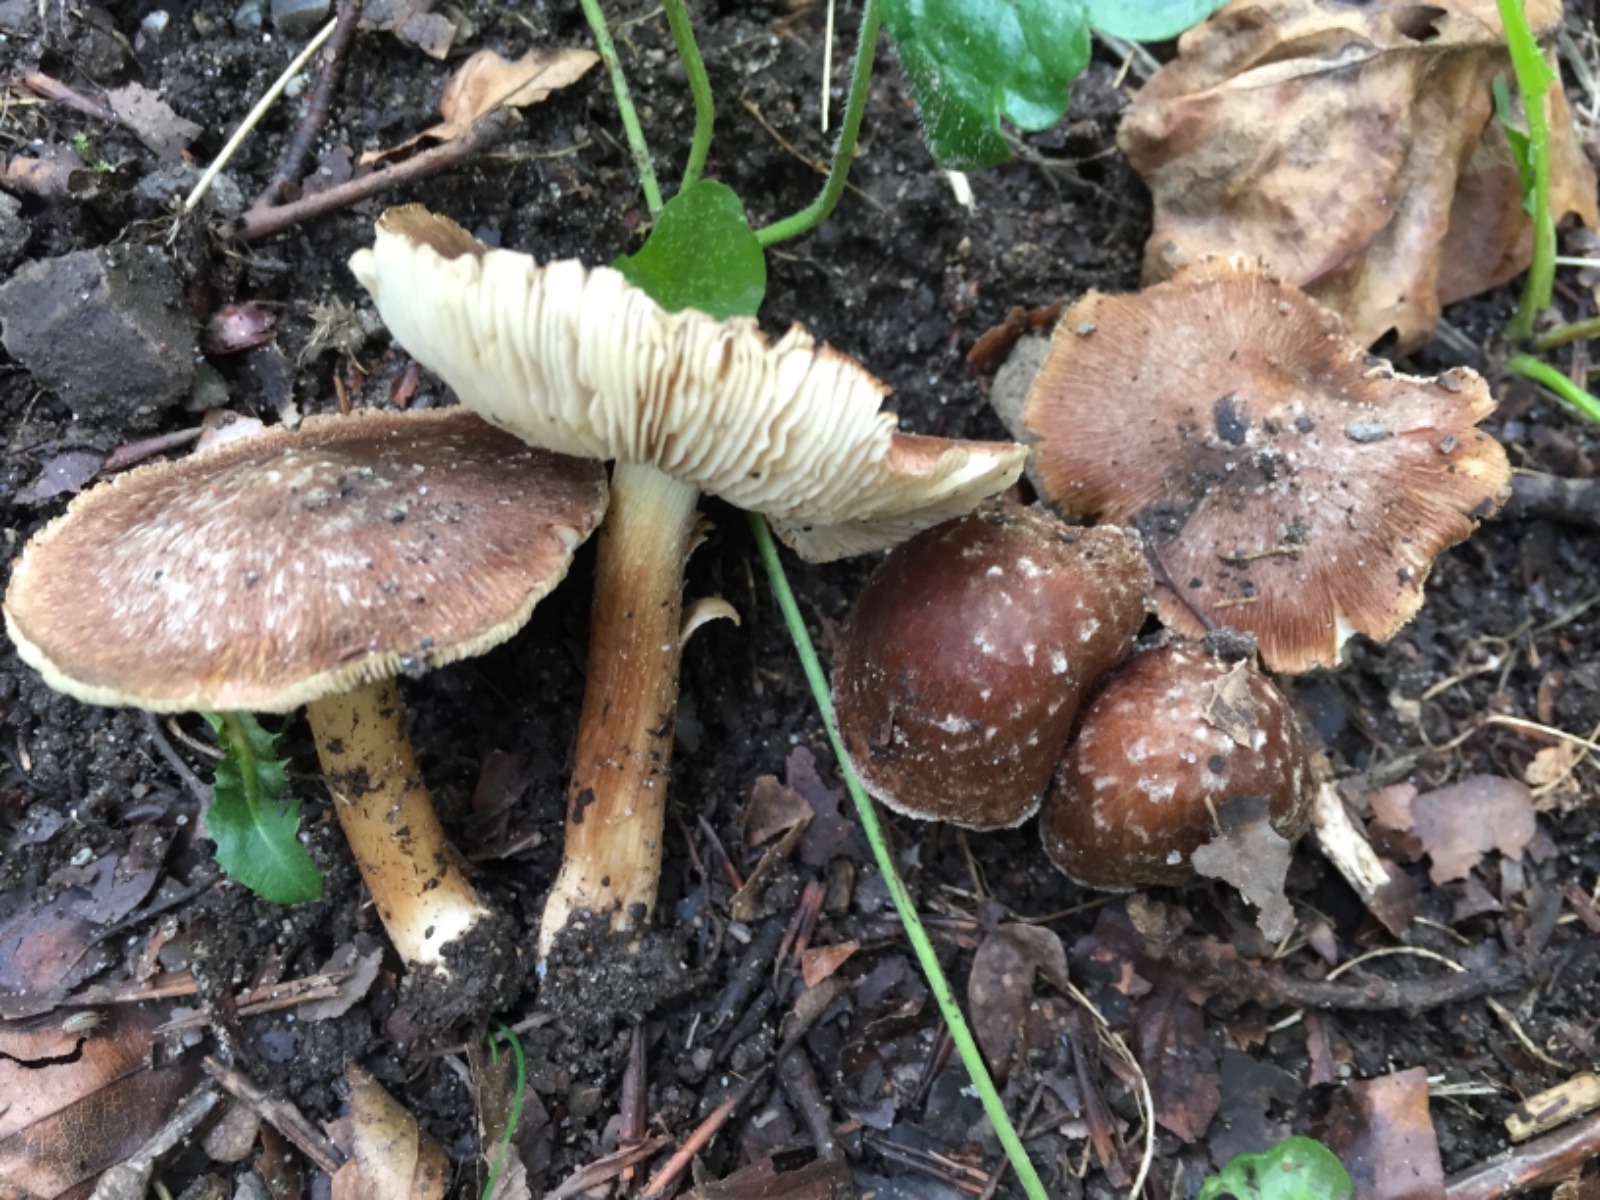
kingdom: Fungi
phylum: Basidiomycota
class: Agaricomycetes
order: Agaricales
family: Inocybaceae
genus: Inosperma
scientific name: Inosperma
